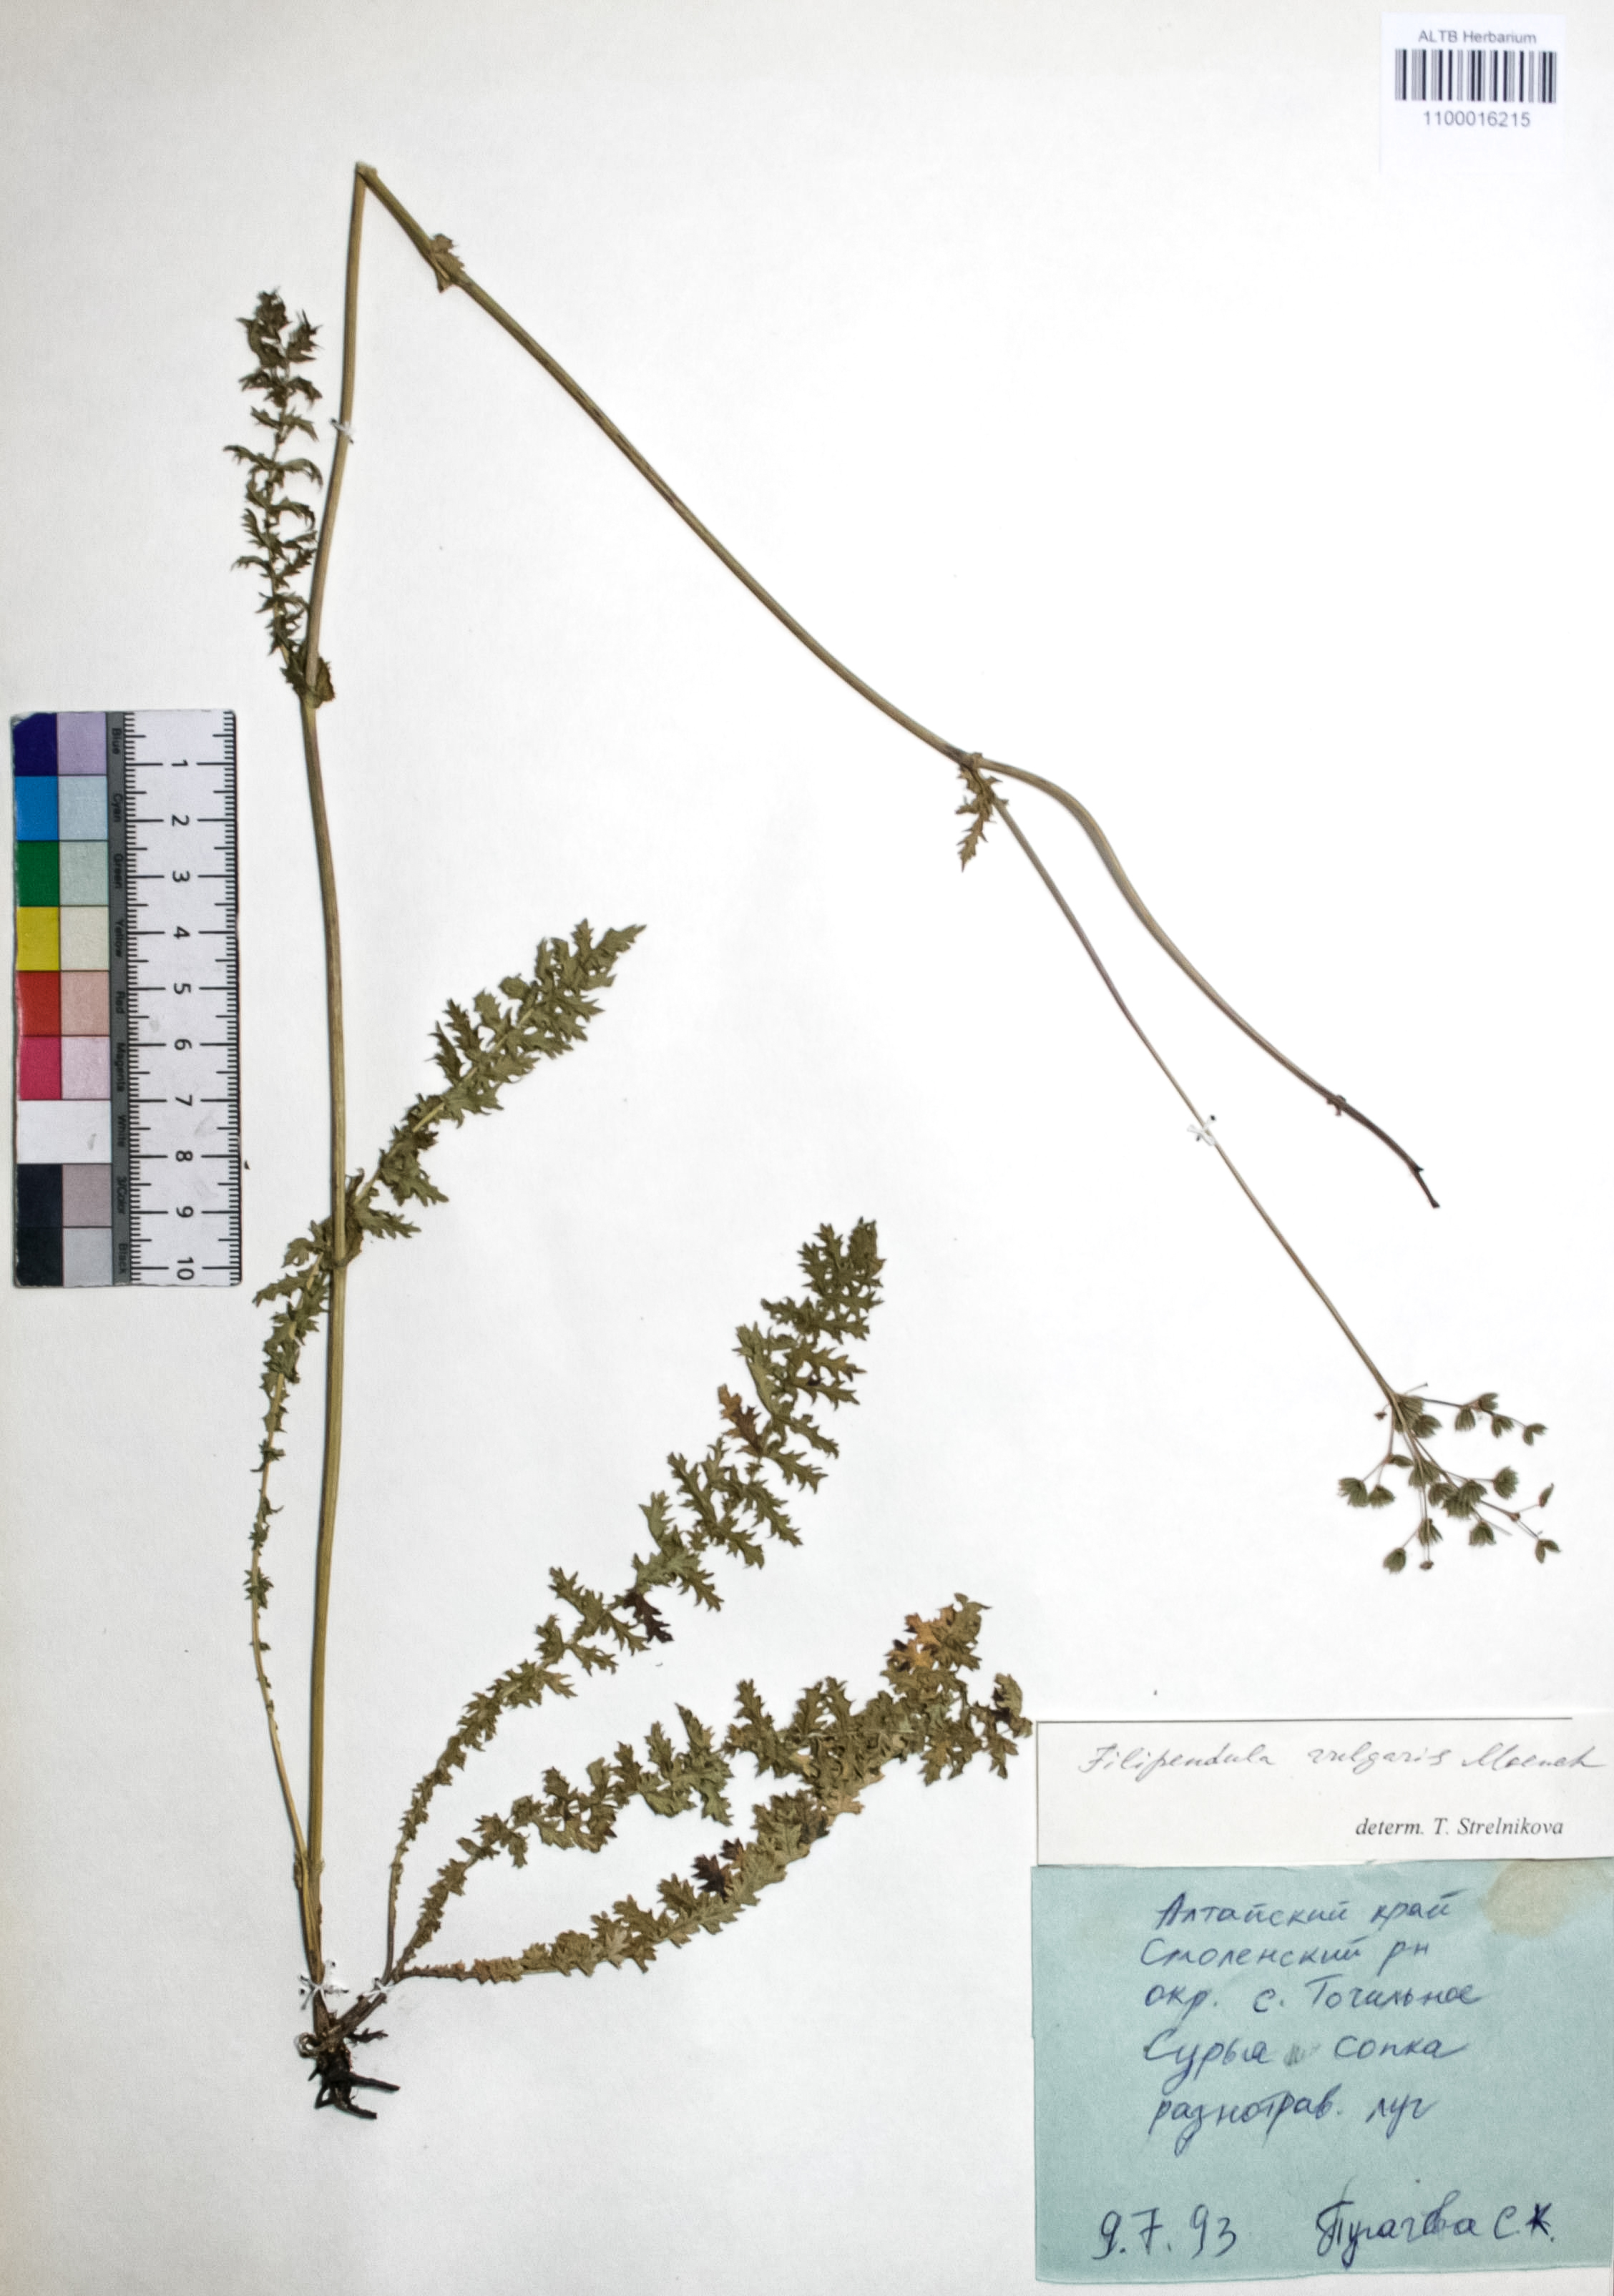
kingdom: Plantae
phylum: Tracheophyta
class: Magnoliopsida
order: Rosales
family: Rosaceae
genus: Filipendula
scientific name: Filipendula vulgaris
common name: Dropwort
